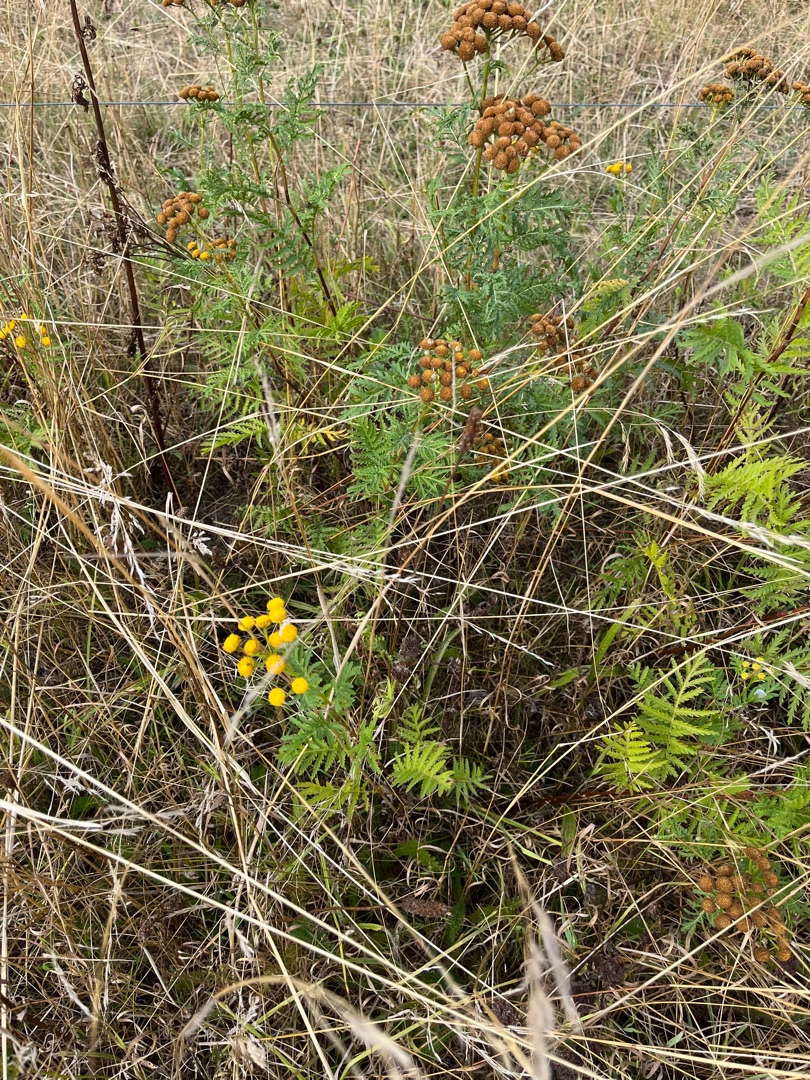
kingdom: Plantae
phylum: Tracheophyta
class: Magnoliopsida
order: Asterales
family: Asteraceae
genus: Tanacetum
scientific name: Tanacetum vulgare
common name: Rejnfan
